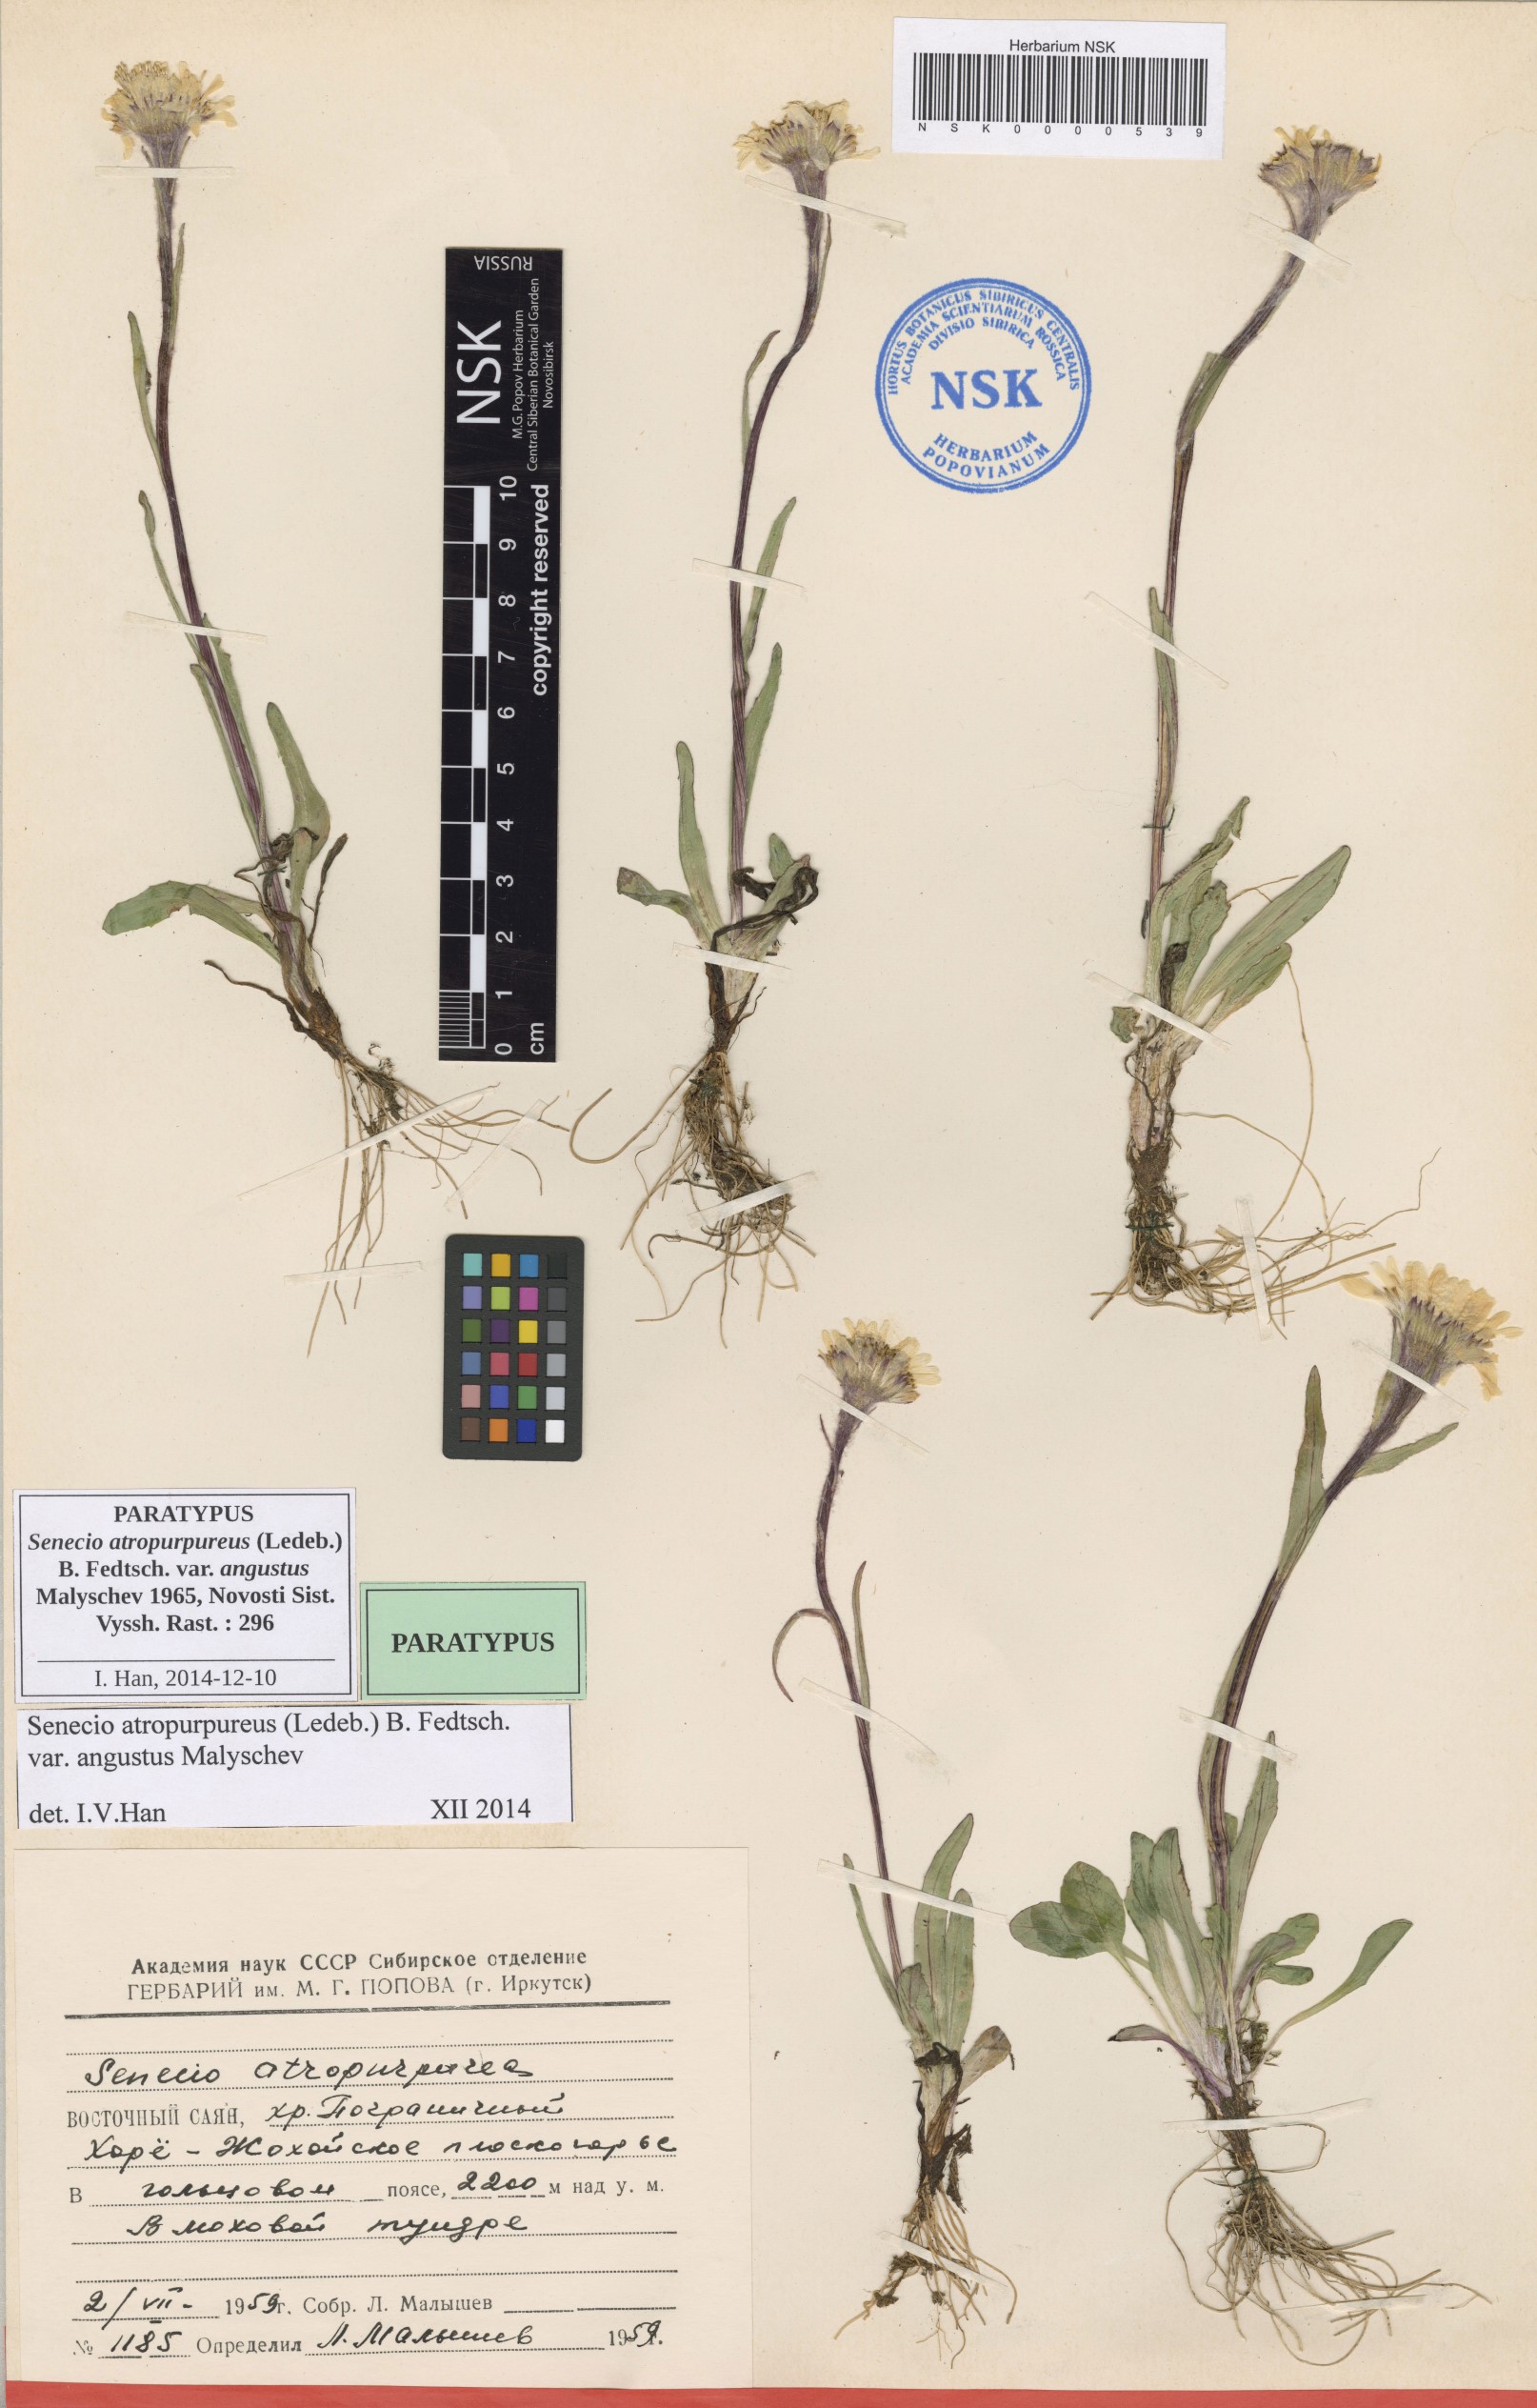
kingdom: Plantae
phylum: Tracheophyta
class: Magnoliopsida
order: Asterales
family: Asteraceae
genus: Tephroseris
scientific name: Tephroseris integrifolia
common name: Field fleawort
